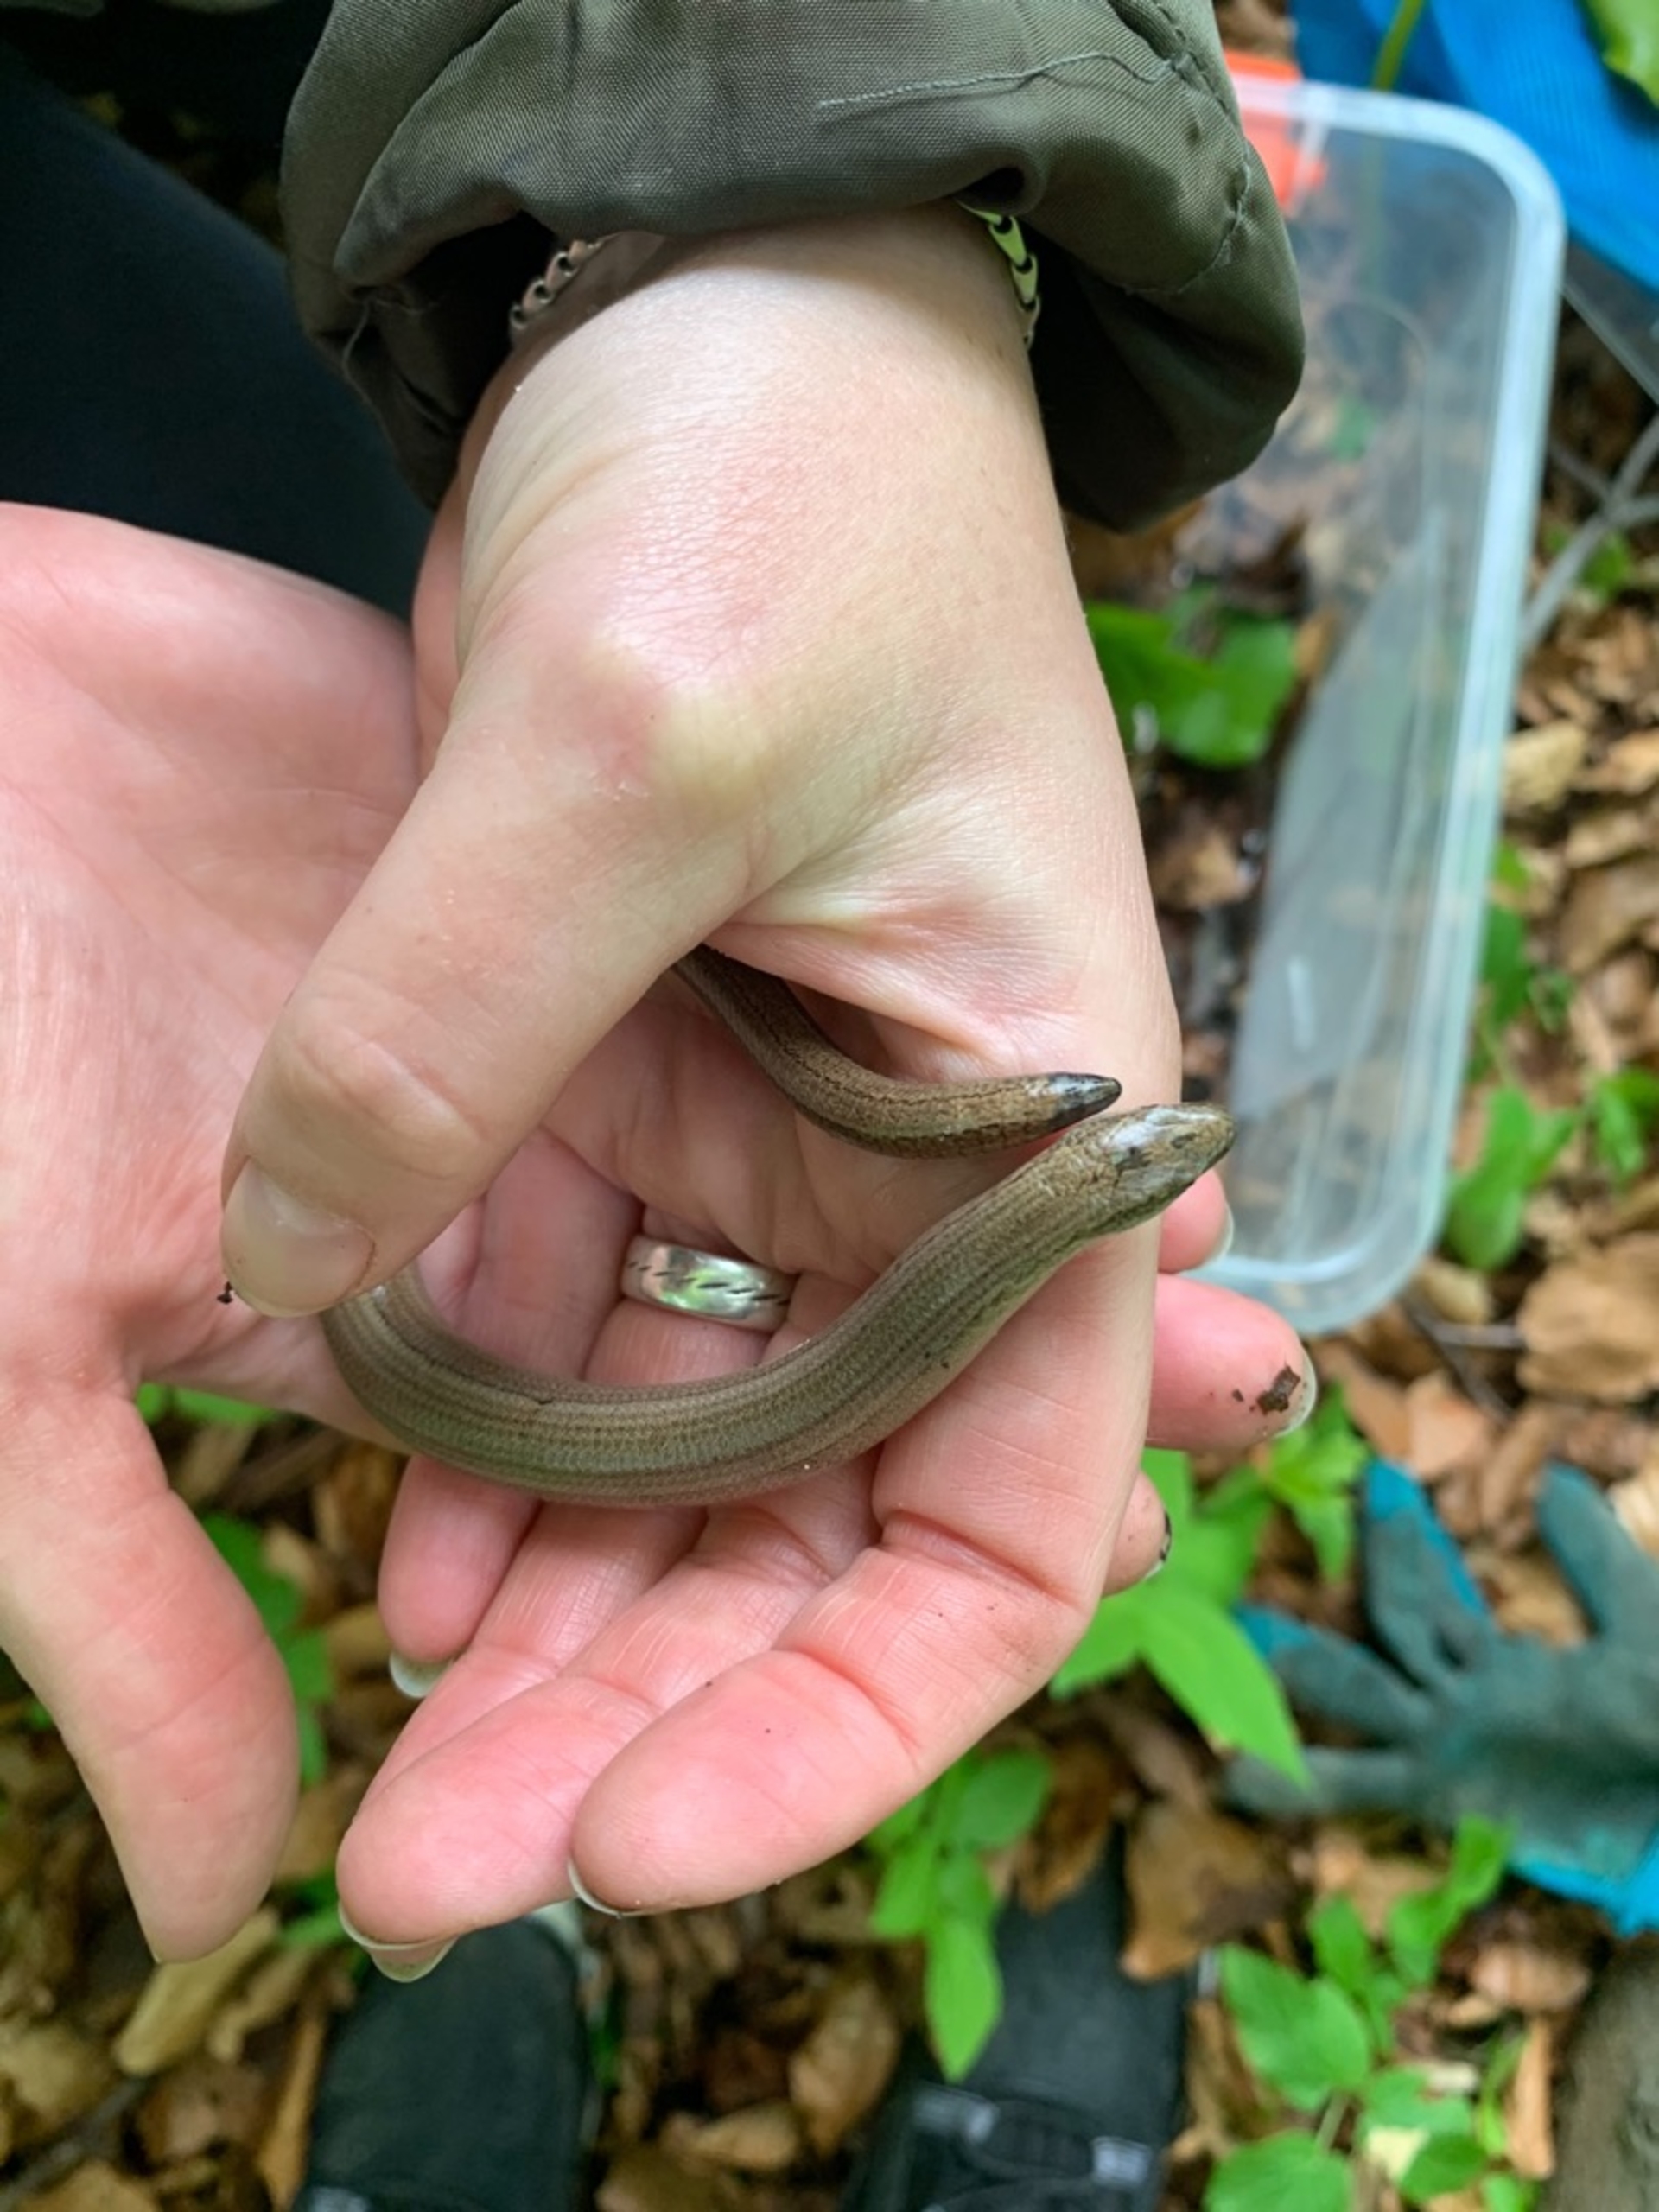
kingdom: Animalia
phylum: Chordata
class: Squamata
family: Anguidae
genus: Anguis
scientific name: Anguis fragilis
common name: Stålorm
